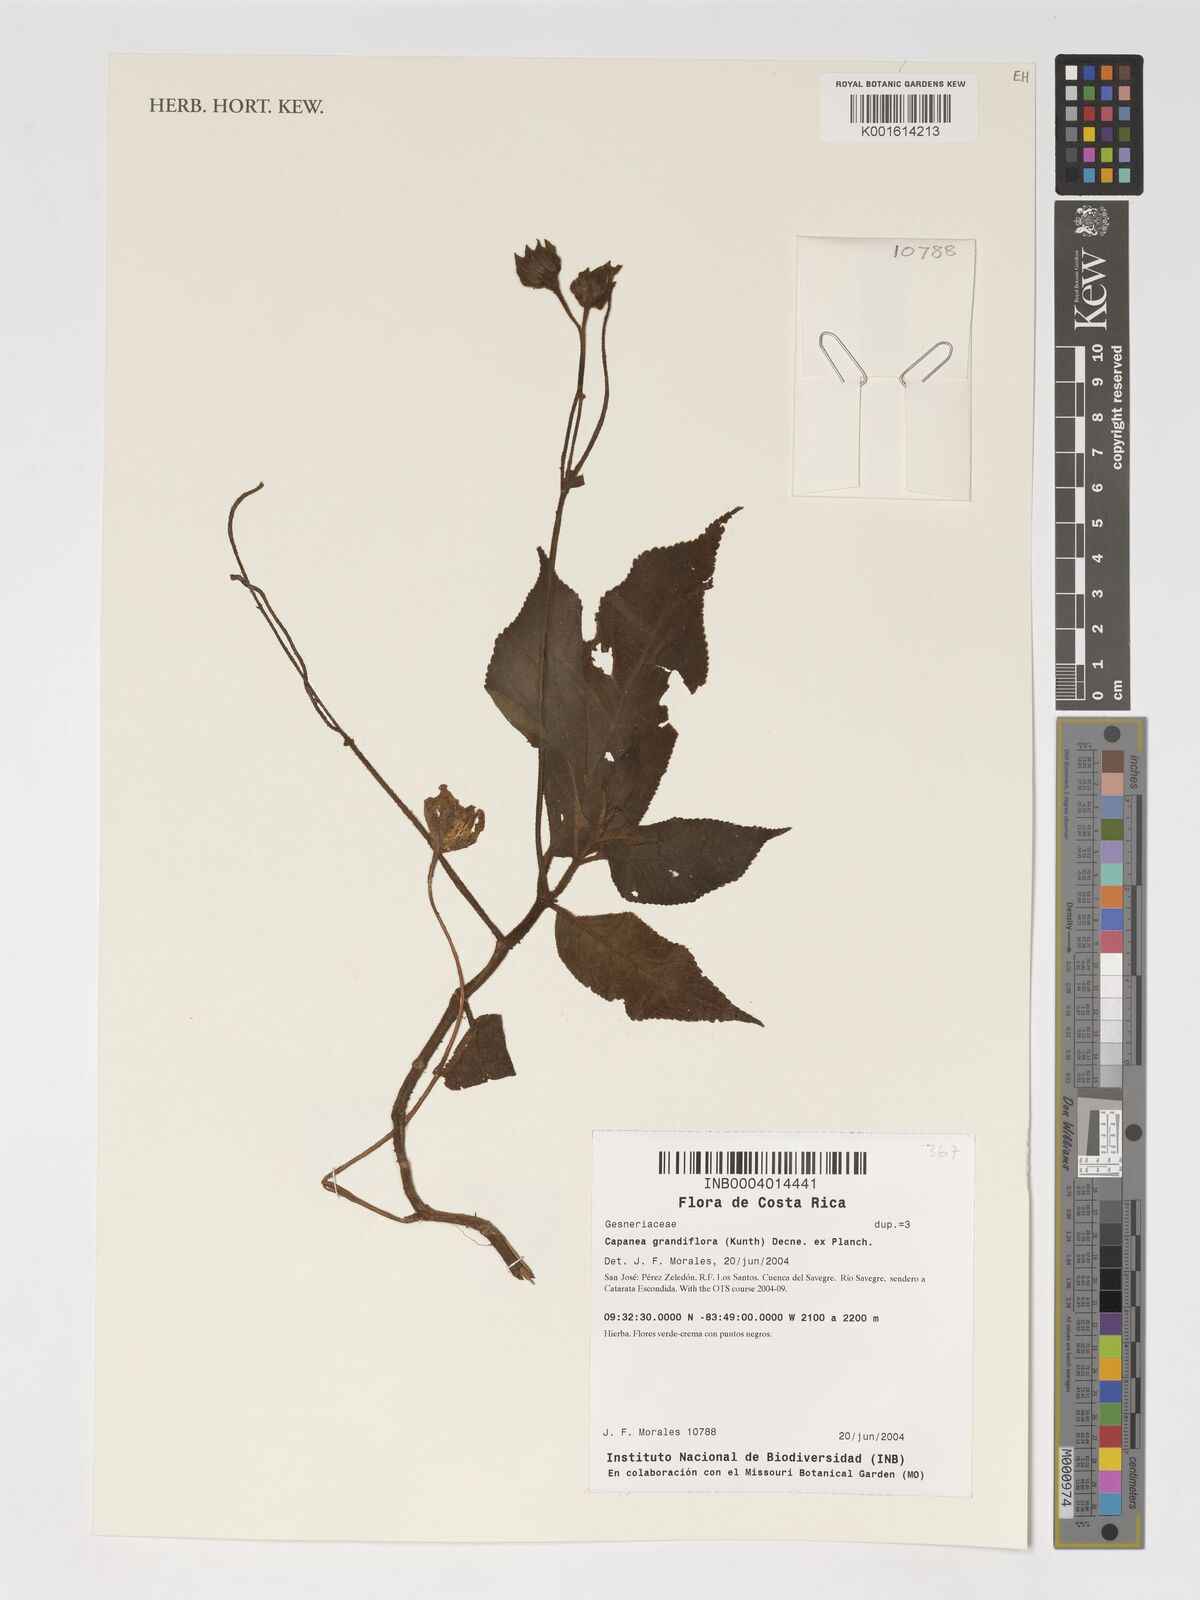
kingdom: Plantae
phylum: Tracheophyta
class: Magnoliopsida
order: Lamiales
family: Gesneriaceae
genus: Kohleria
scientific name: Kohleria tigridia
